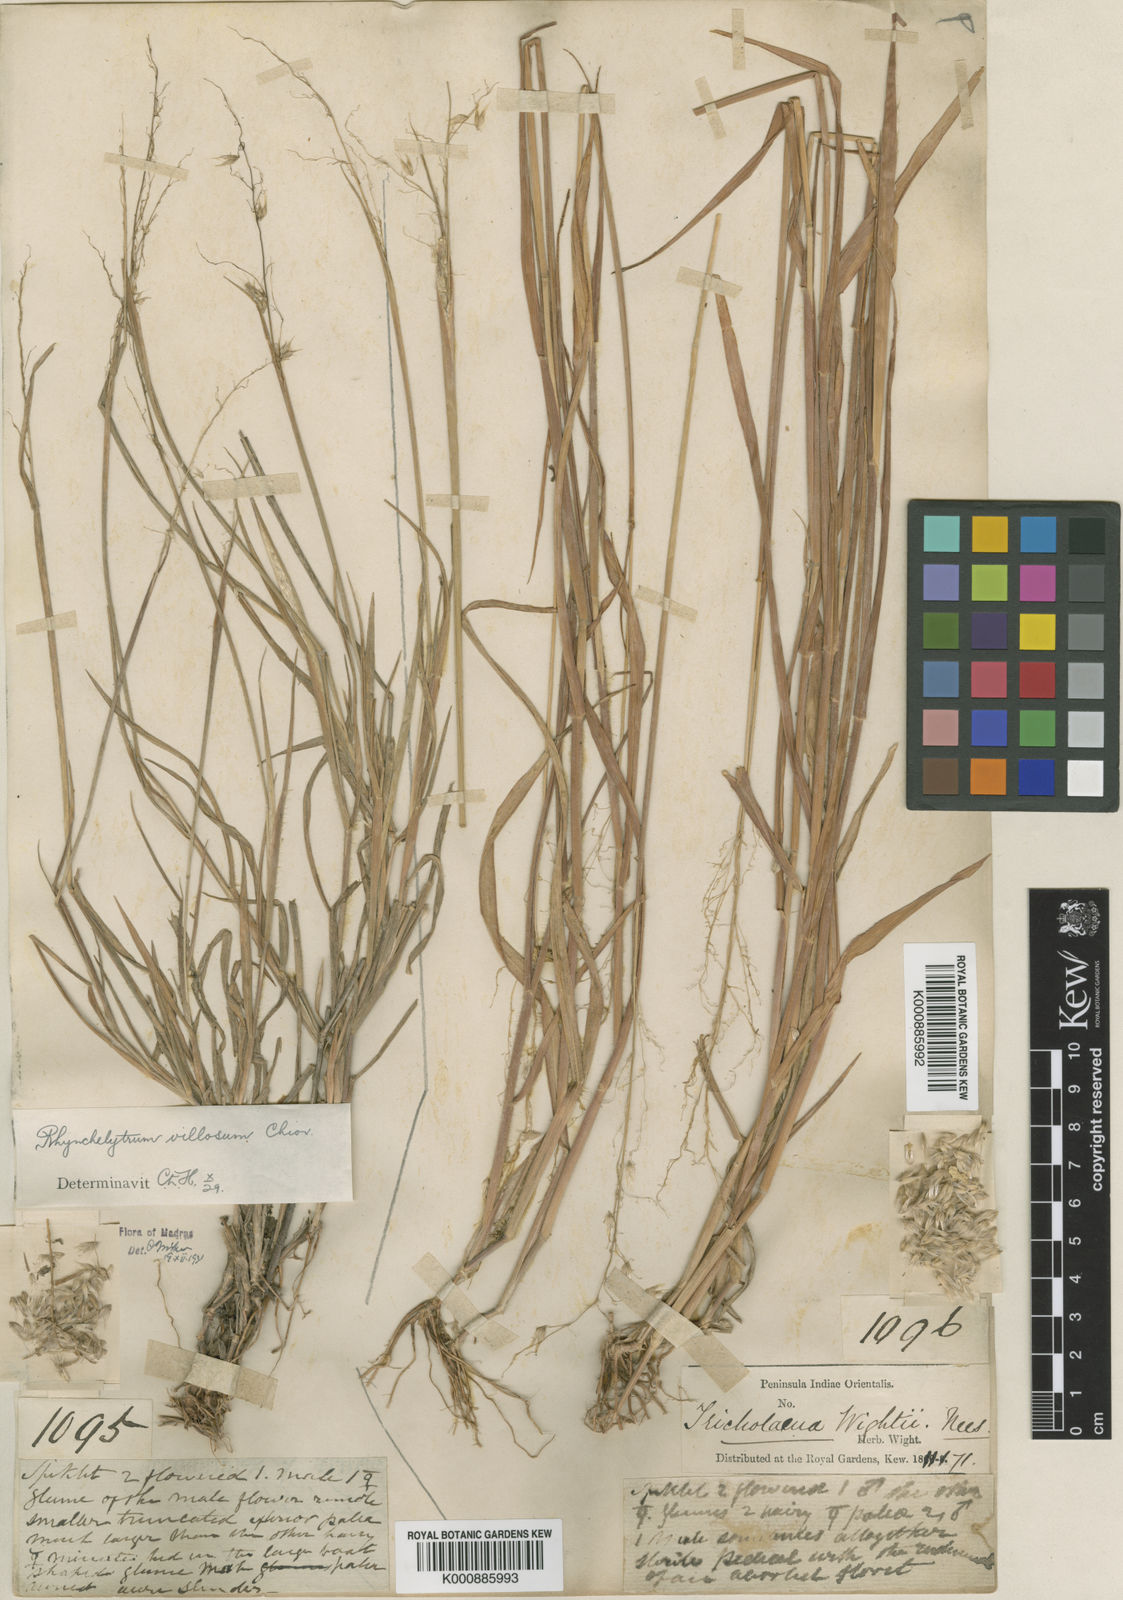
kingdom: Plantae
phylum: Tracheophyta
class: Liliopsida
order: Poales
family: Poaceae
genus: Melinis
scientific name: Melinis repens
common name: Rose natal grass
